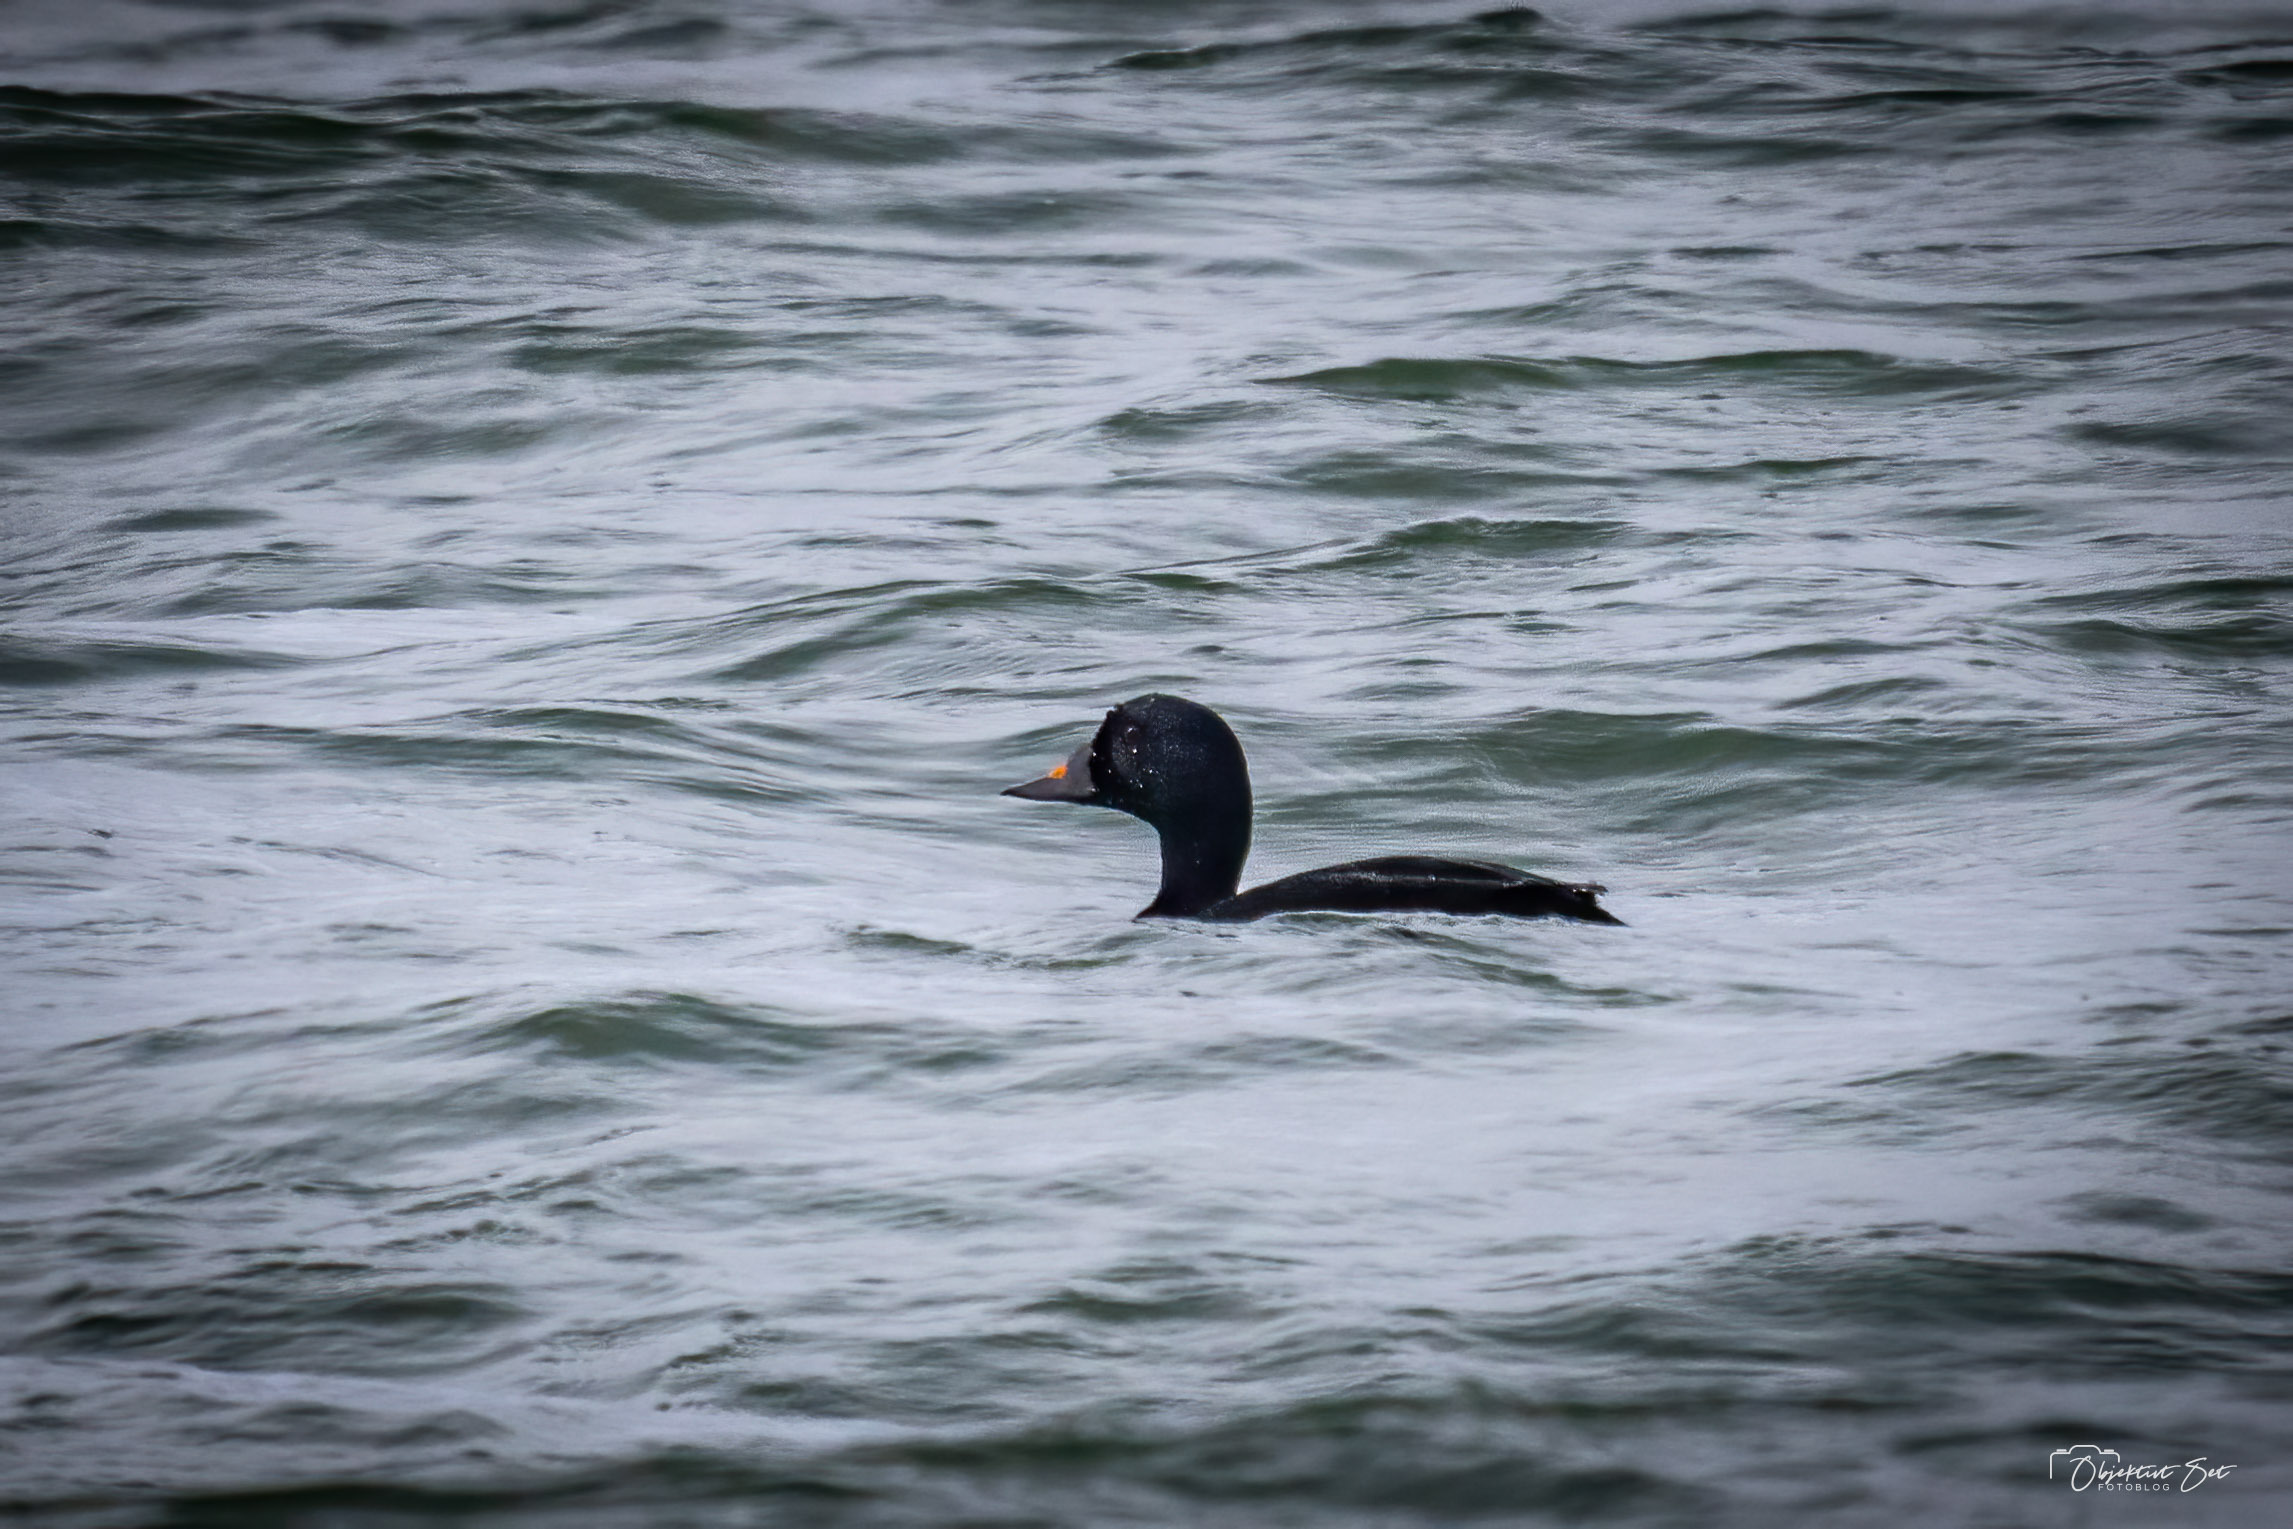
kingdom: Animalia
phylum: Chordata
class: Aves
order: Anseriformes
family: Anatidae
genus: Melanitta
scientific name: Melanitta nigra
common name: Sortand
